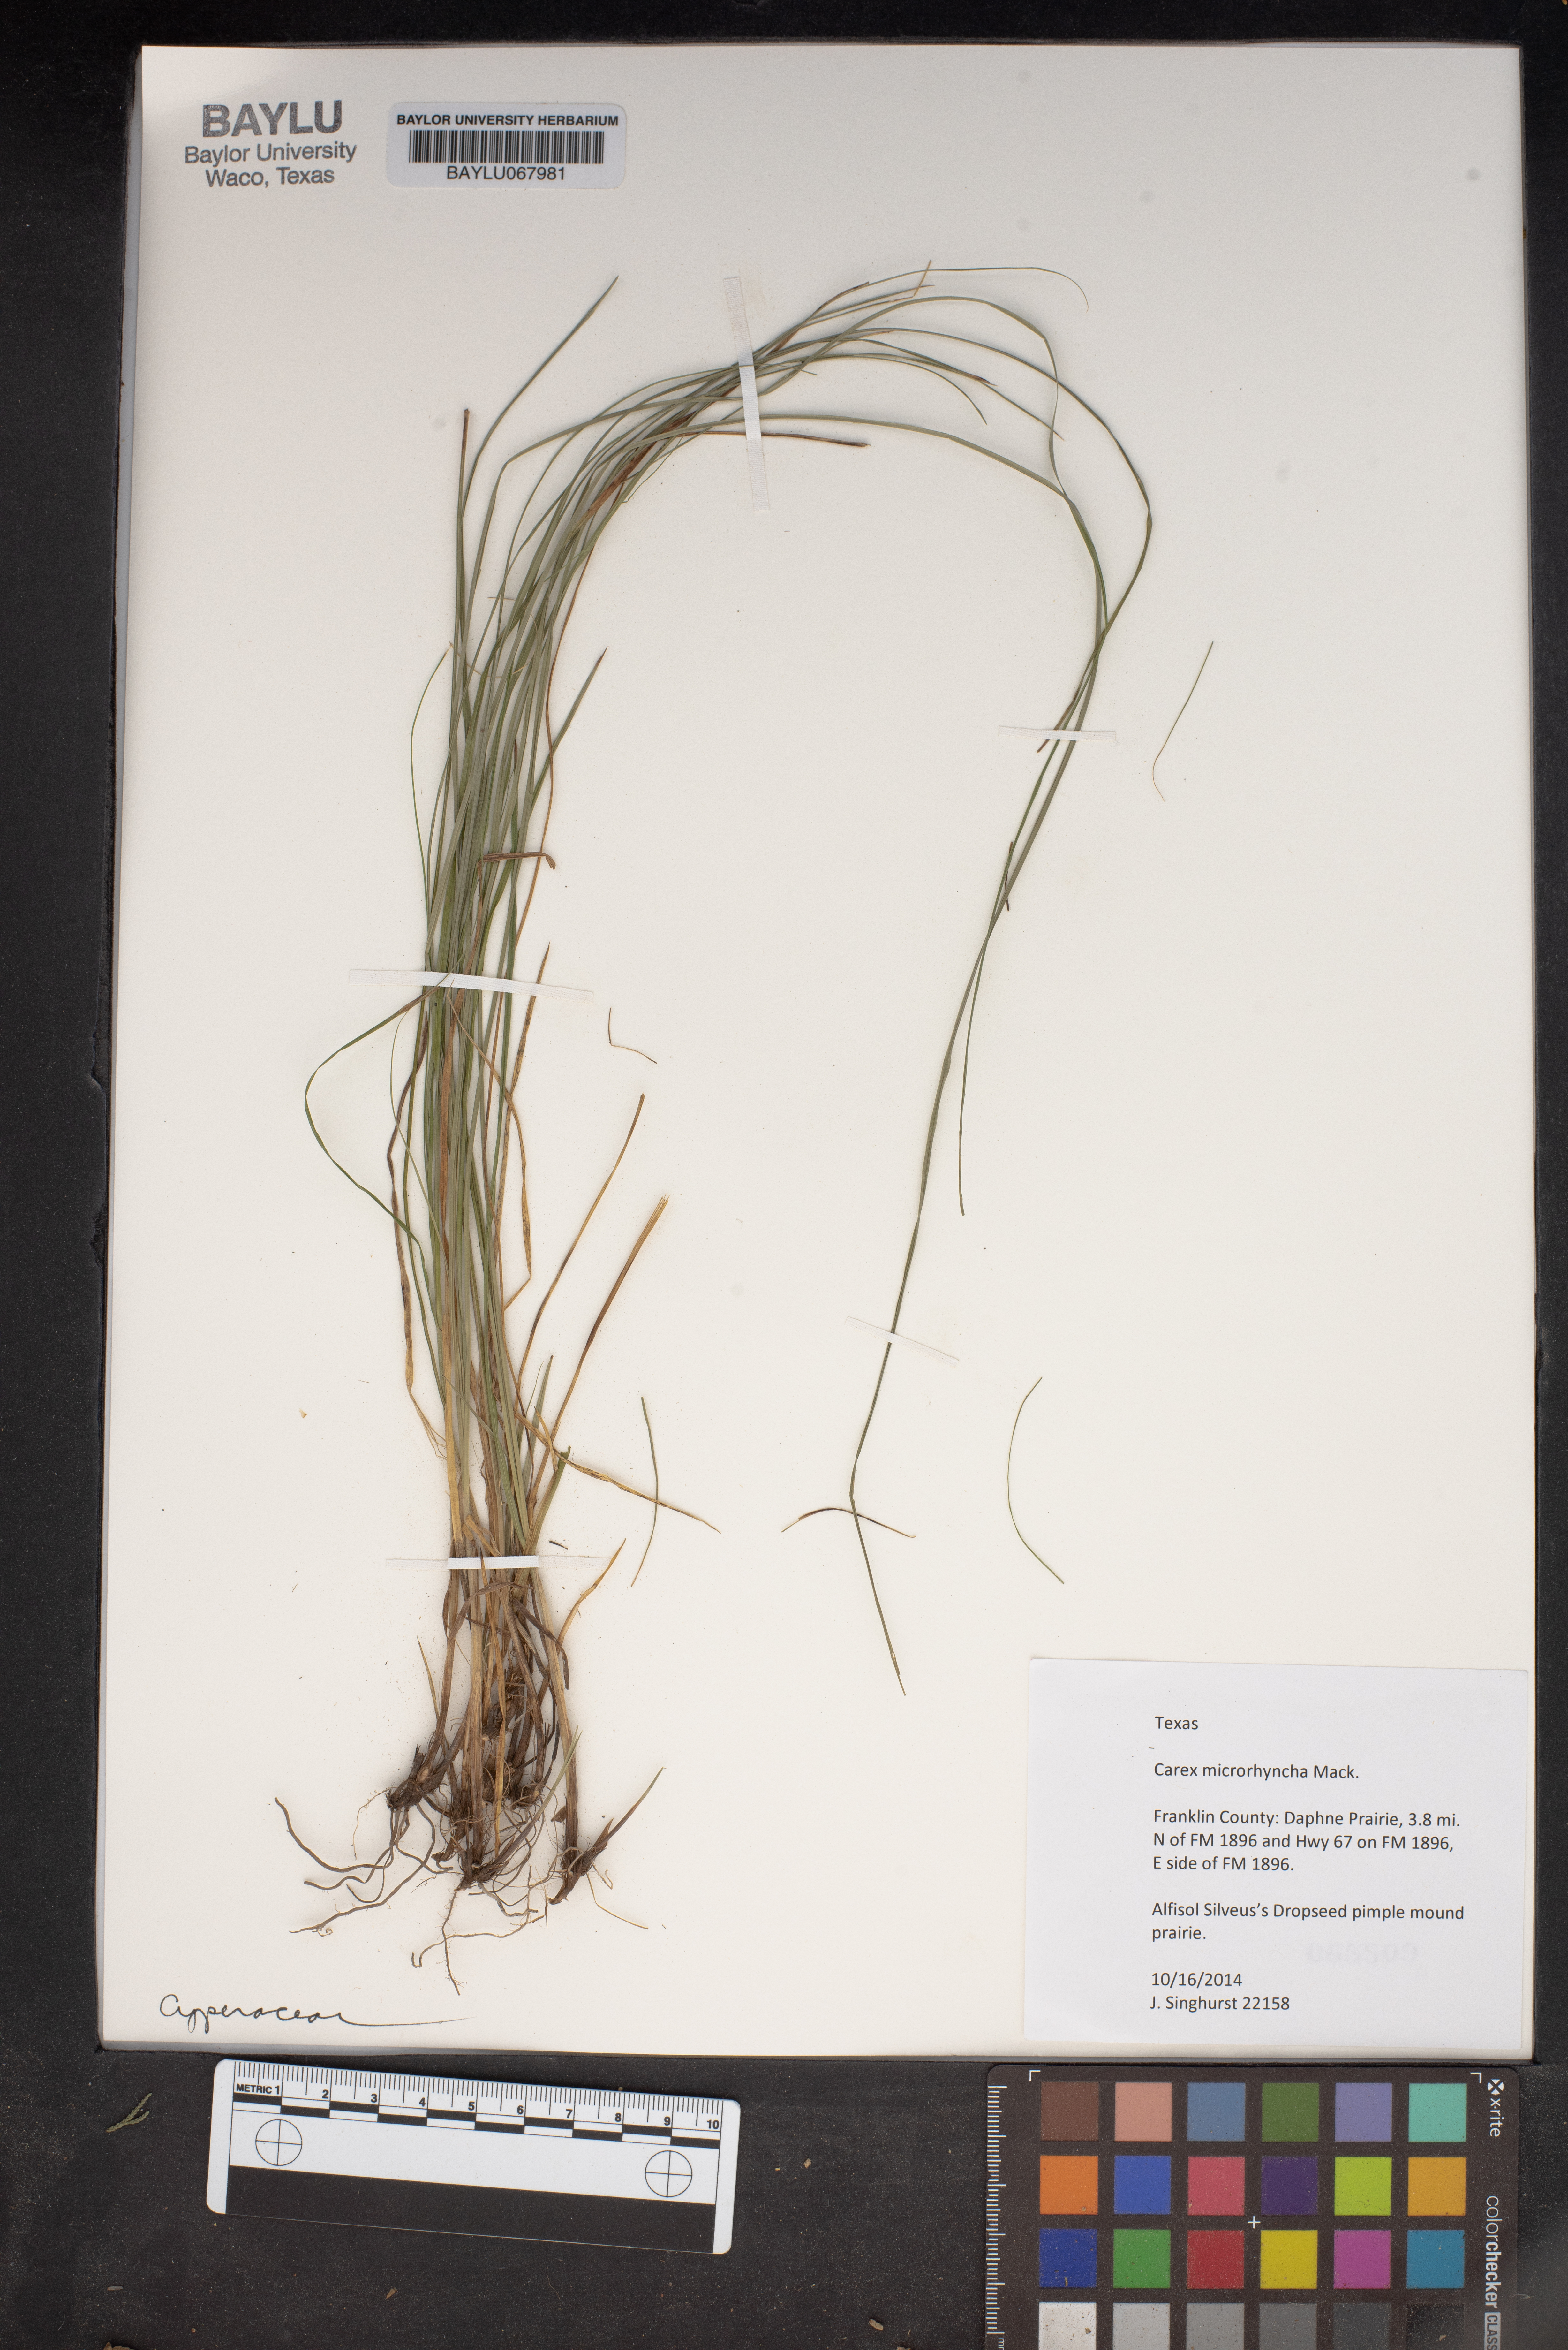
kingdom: Plantae
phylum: Tracheophyta
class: Liliopsida
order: Poales
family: Cyperaceae
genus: Carex
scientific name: Carex microrhyncha
